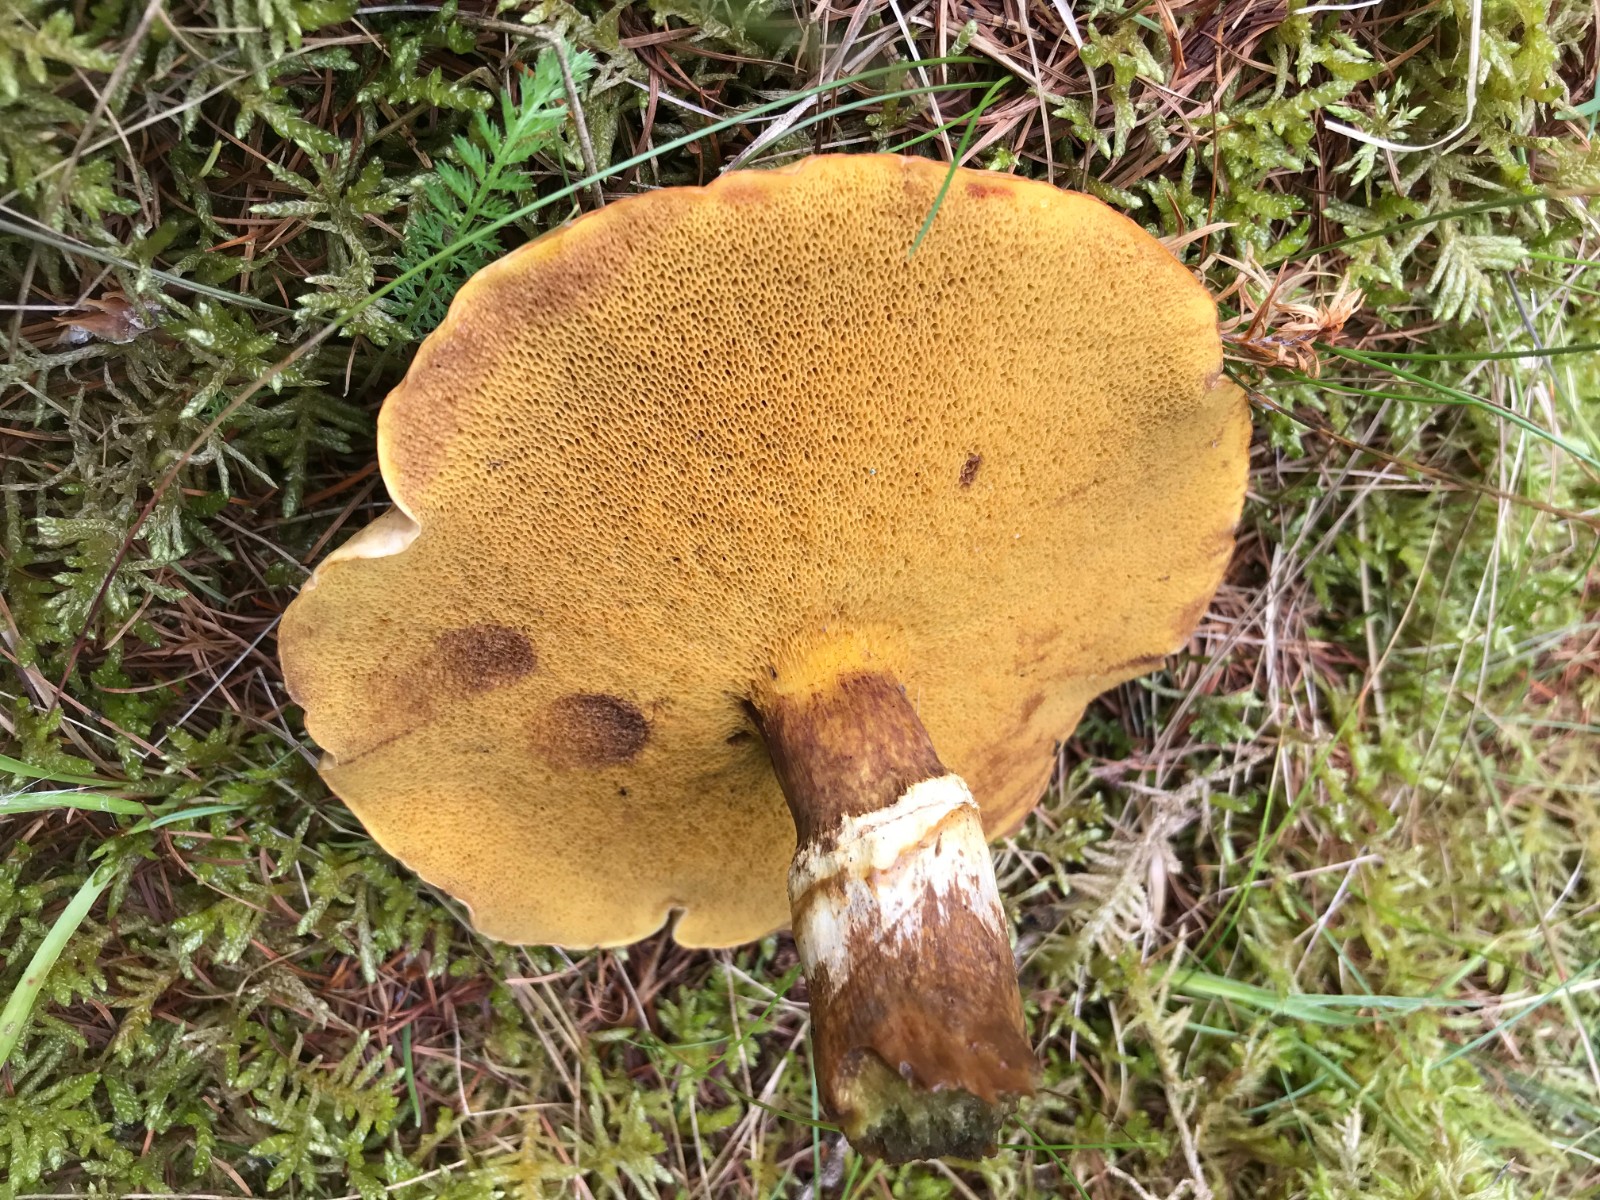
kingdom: Fungi
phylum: Basidiomycota
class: Agaricomycetes
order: Boletales
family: Suillaceae
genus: Suillus
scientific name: Suillus grevillei
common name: lærke-slimrørhat
